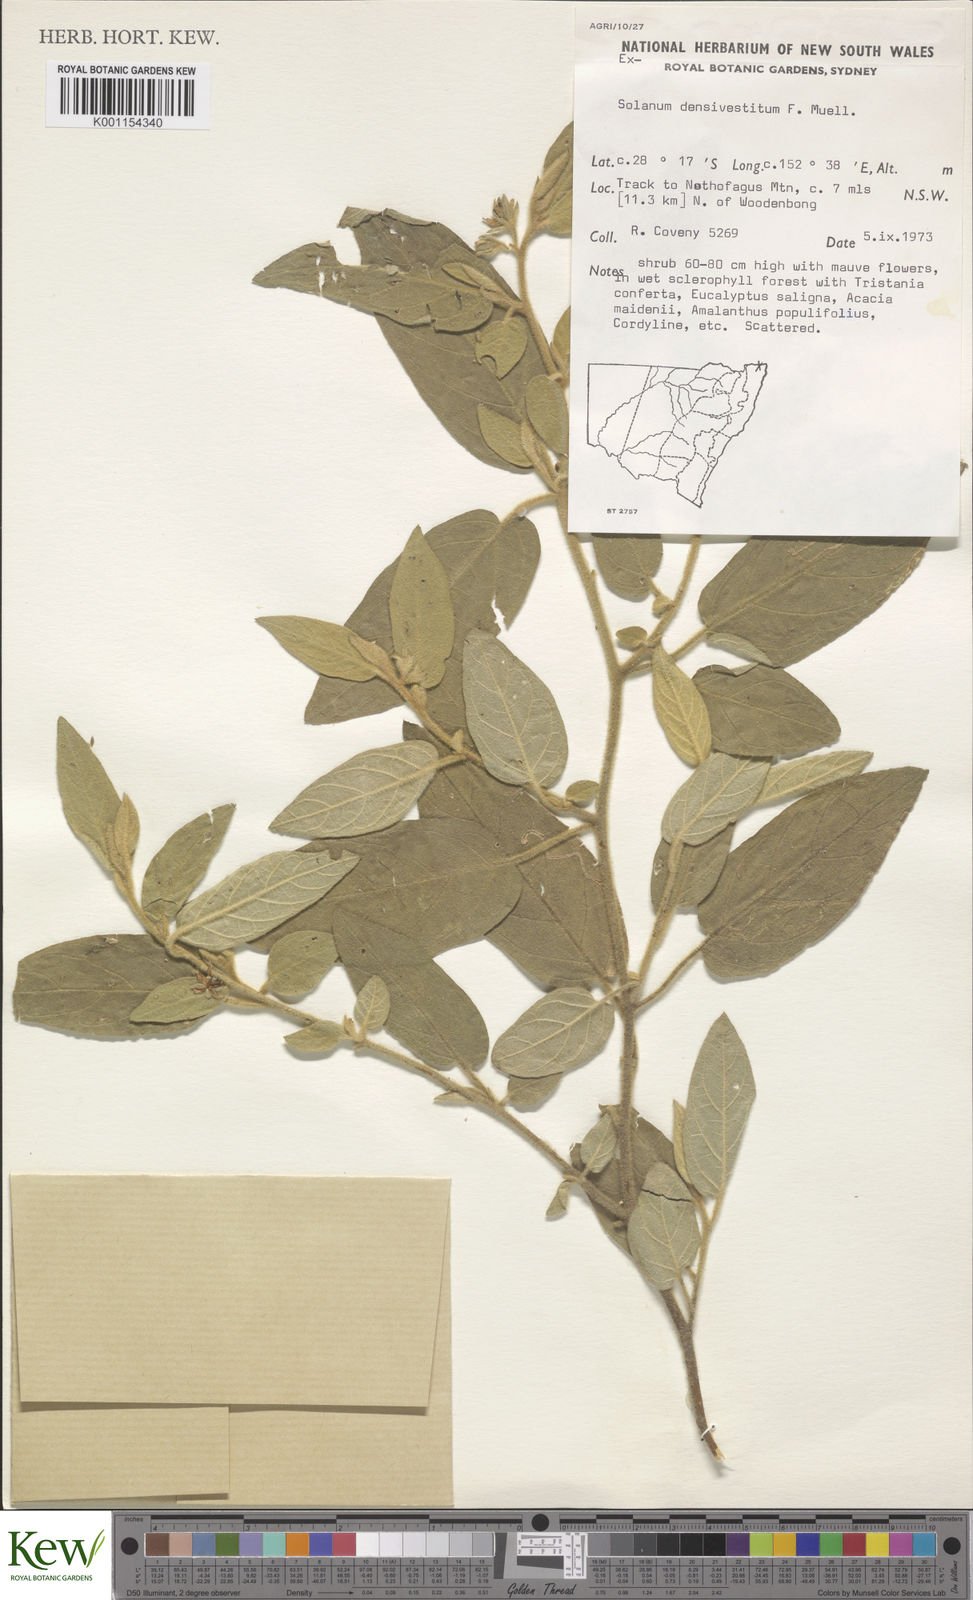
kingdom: Plantae
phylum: Tracheophyta
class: Magnoliopsida
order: Solanales
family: Solanaceae
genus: Solanum
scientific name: Solanum densevestitum
